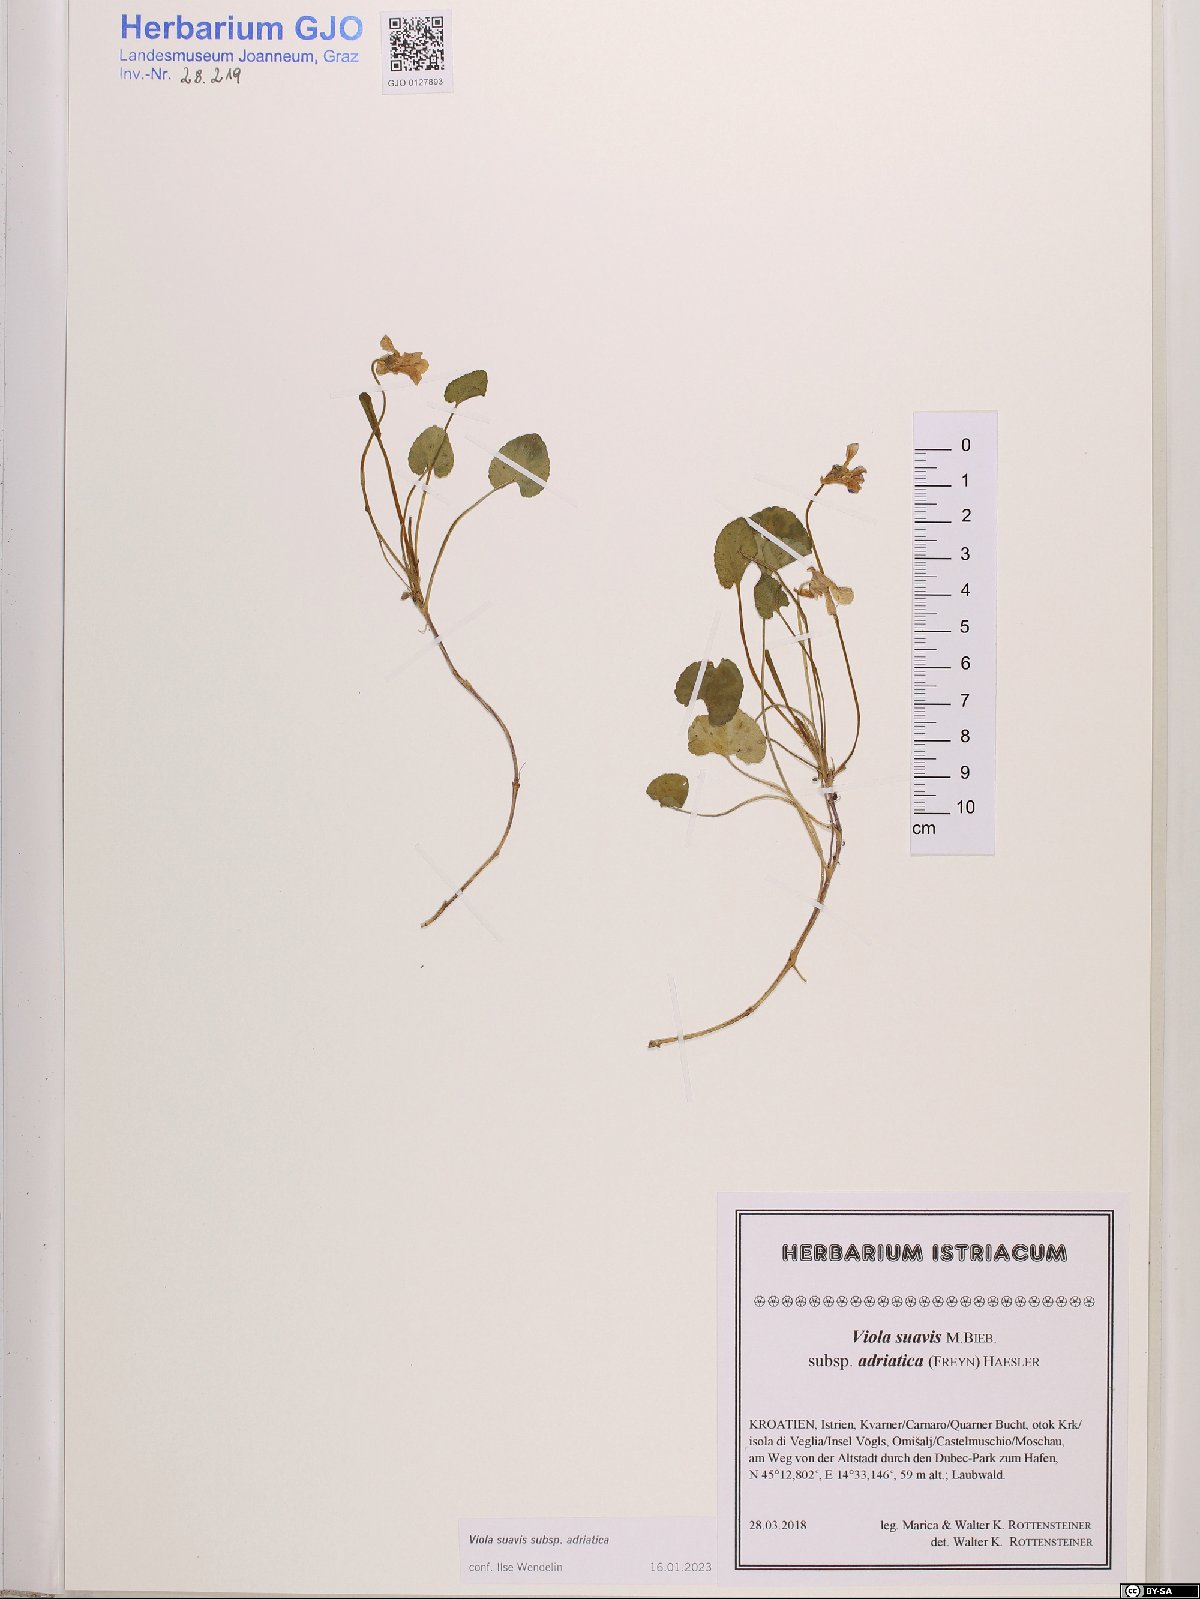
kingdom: Plantae
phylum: Tracheophyta
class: Magnoliopsida
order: Malpighiales
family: Violaceae
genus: Viola
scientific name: Viola suavis
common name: Russian violet
